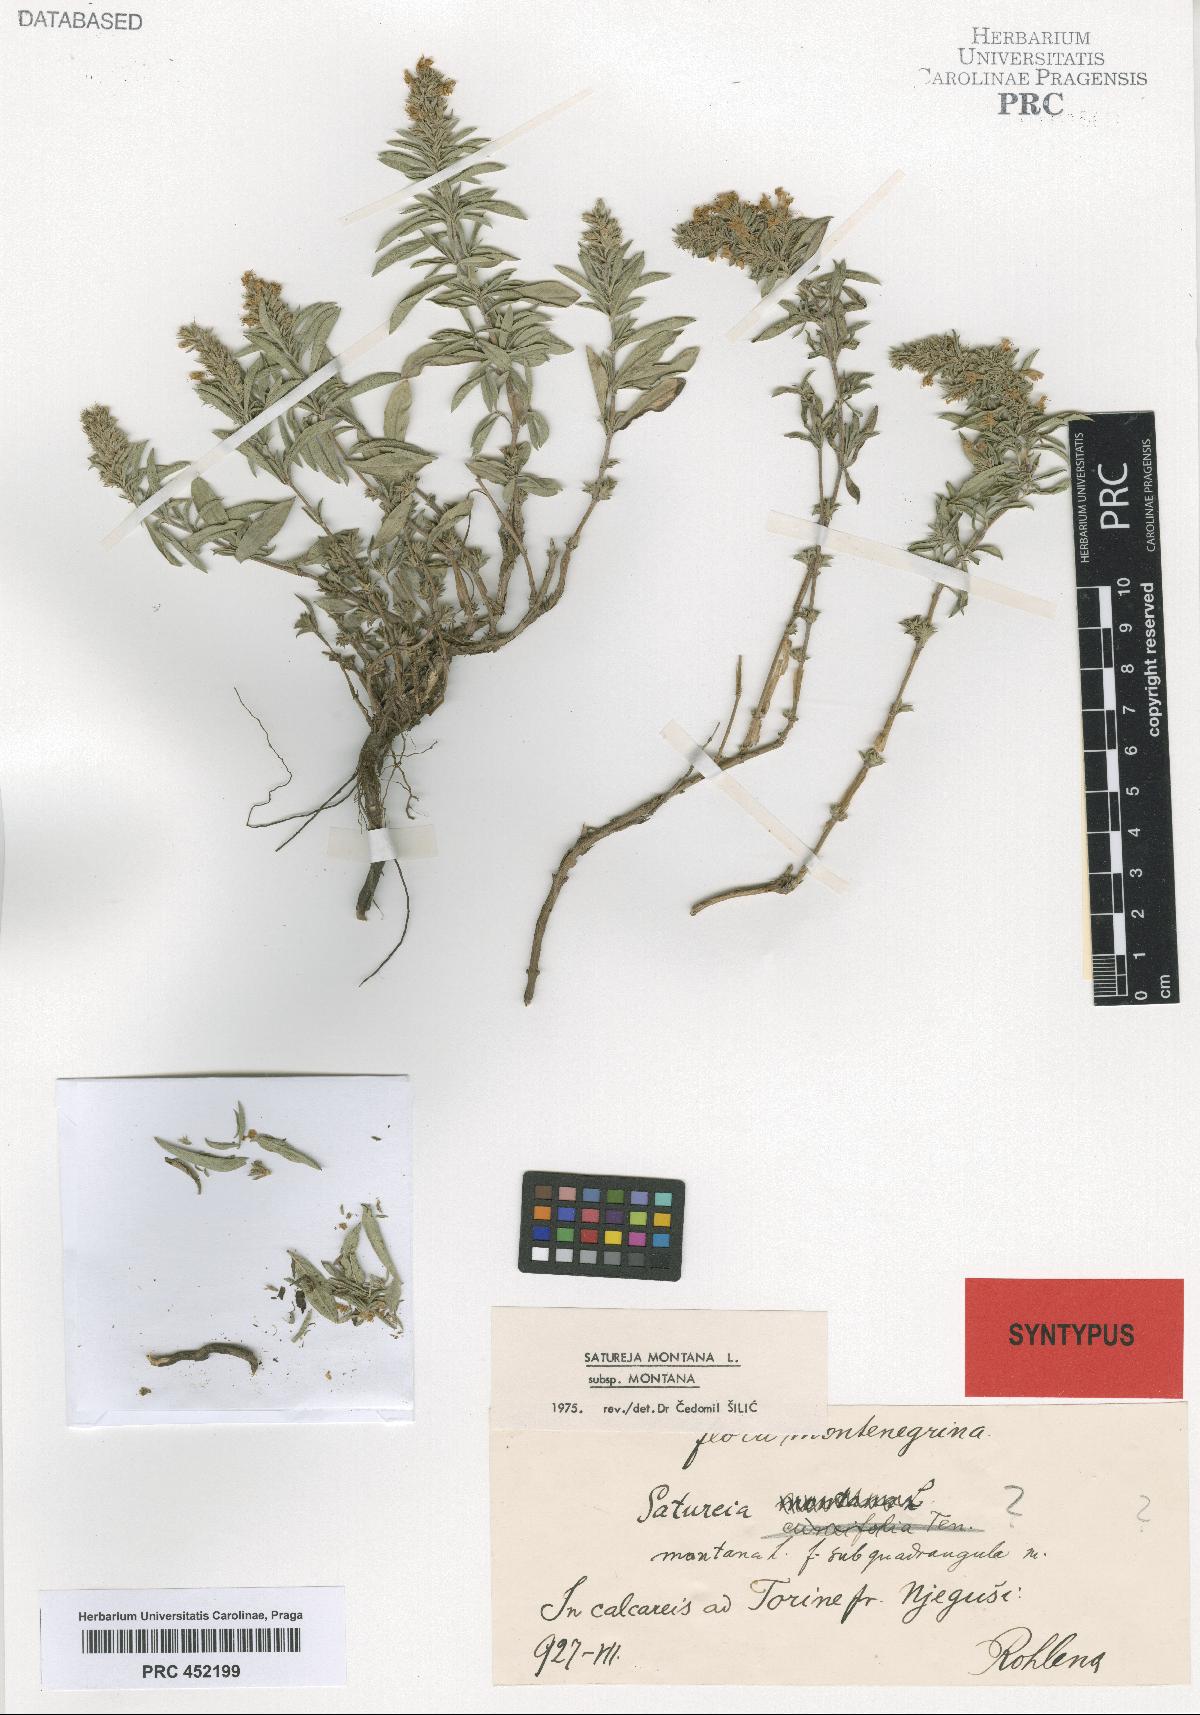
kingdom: Plantae
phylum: Tracheophyta
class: Magnoliopsida
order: Lamiales
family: Lamiaceae
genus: Satureja
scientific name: Satureja montana
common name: Winter savory
